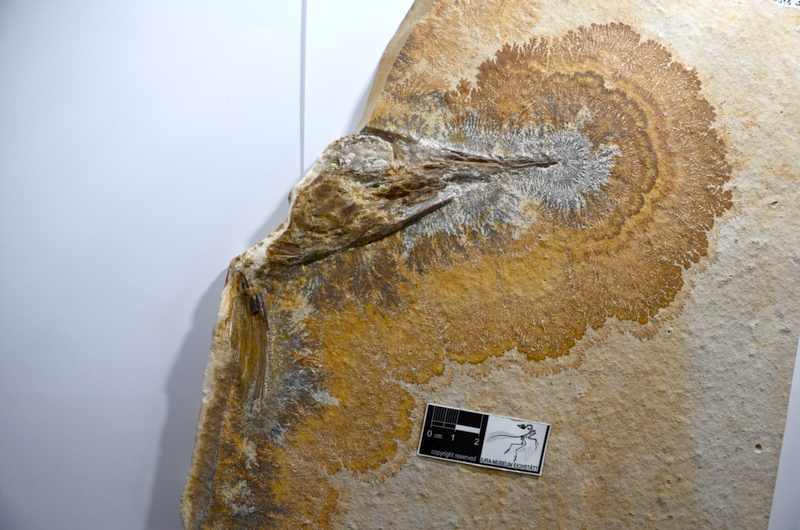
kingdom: Animalia
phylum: Chordata
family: Aspidorhynchidae
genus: Aspidorhynchus
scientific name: Aspidorhynchus acutirostris
